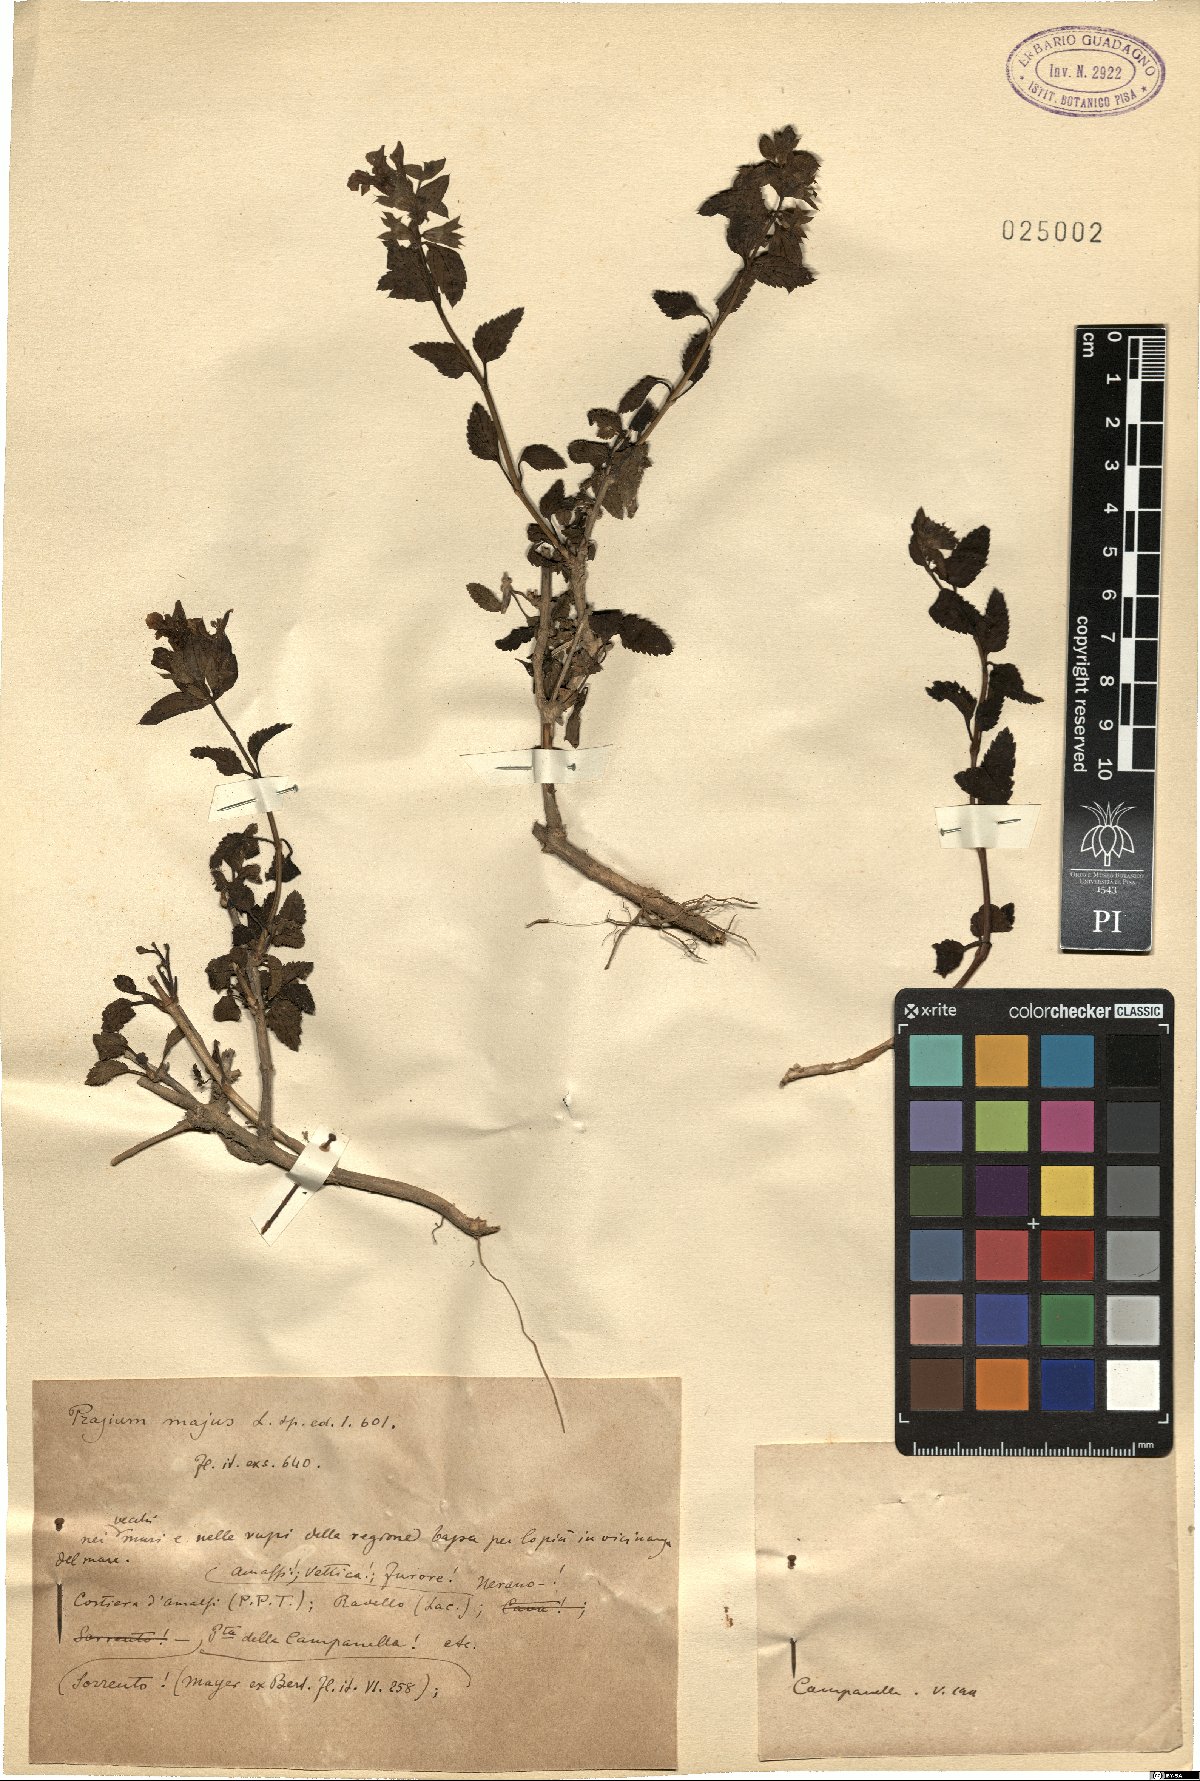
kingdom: Plantae
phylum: Tracheophyta
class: Magnoliopsida
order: Lamiales
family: Lamiaceae
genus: Prasium
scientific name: Prasium majus
